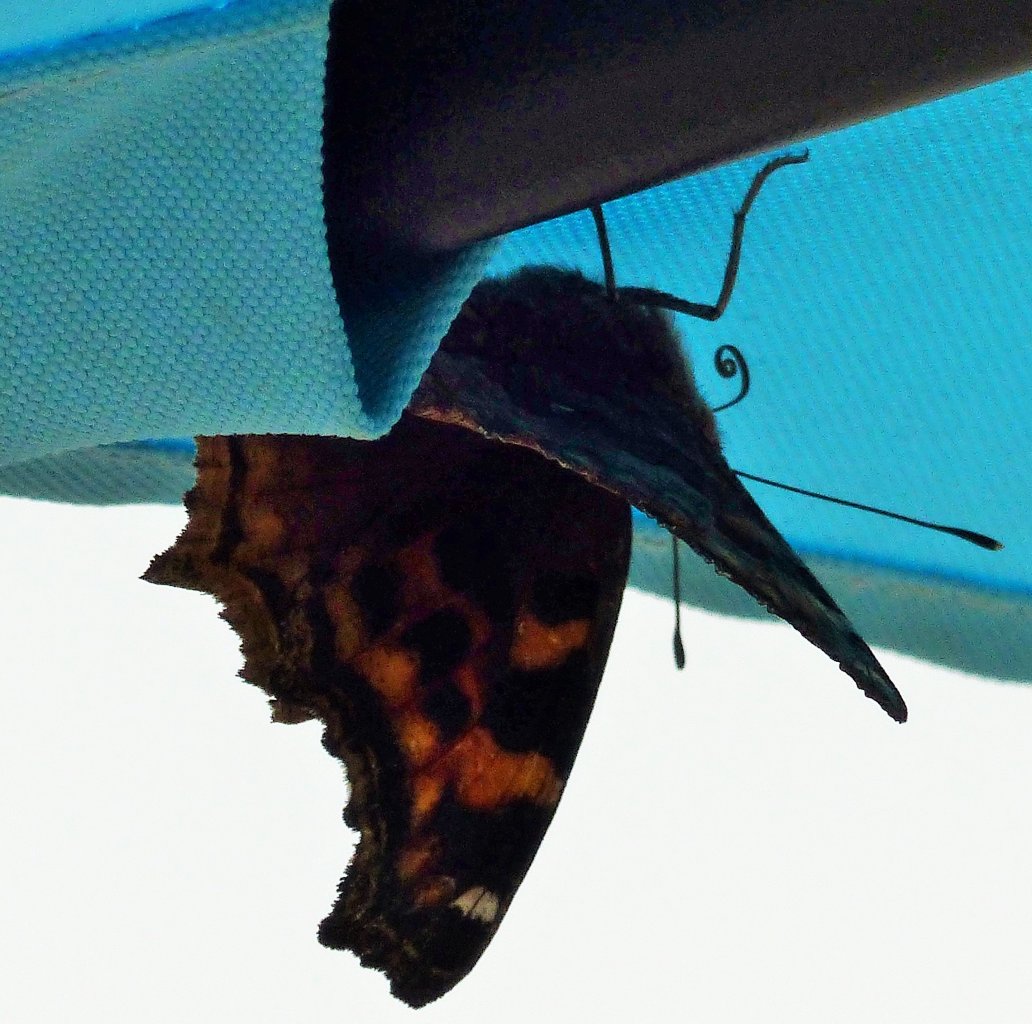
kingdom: Animalia
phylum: Arthropoda
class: Insecta
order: Lepidoptera
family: Nymphalidae
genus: Polygonia
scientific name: Polygonia vaualbum
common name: Compton Tortoiseshell
